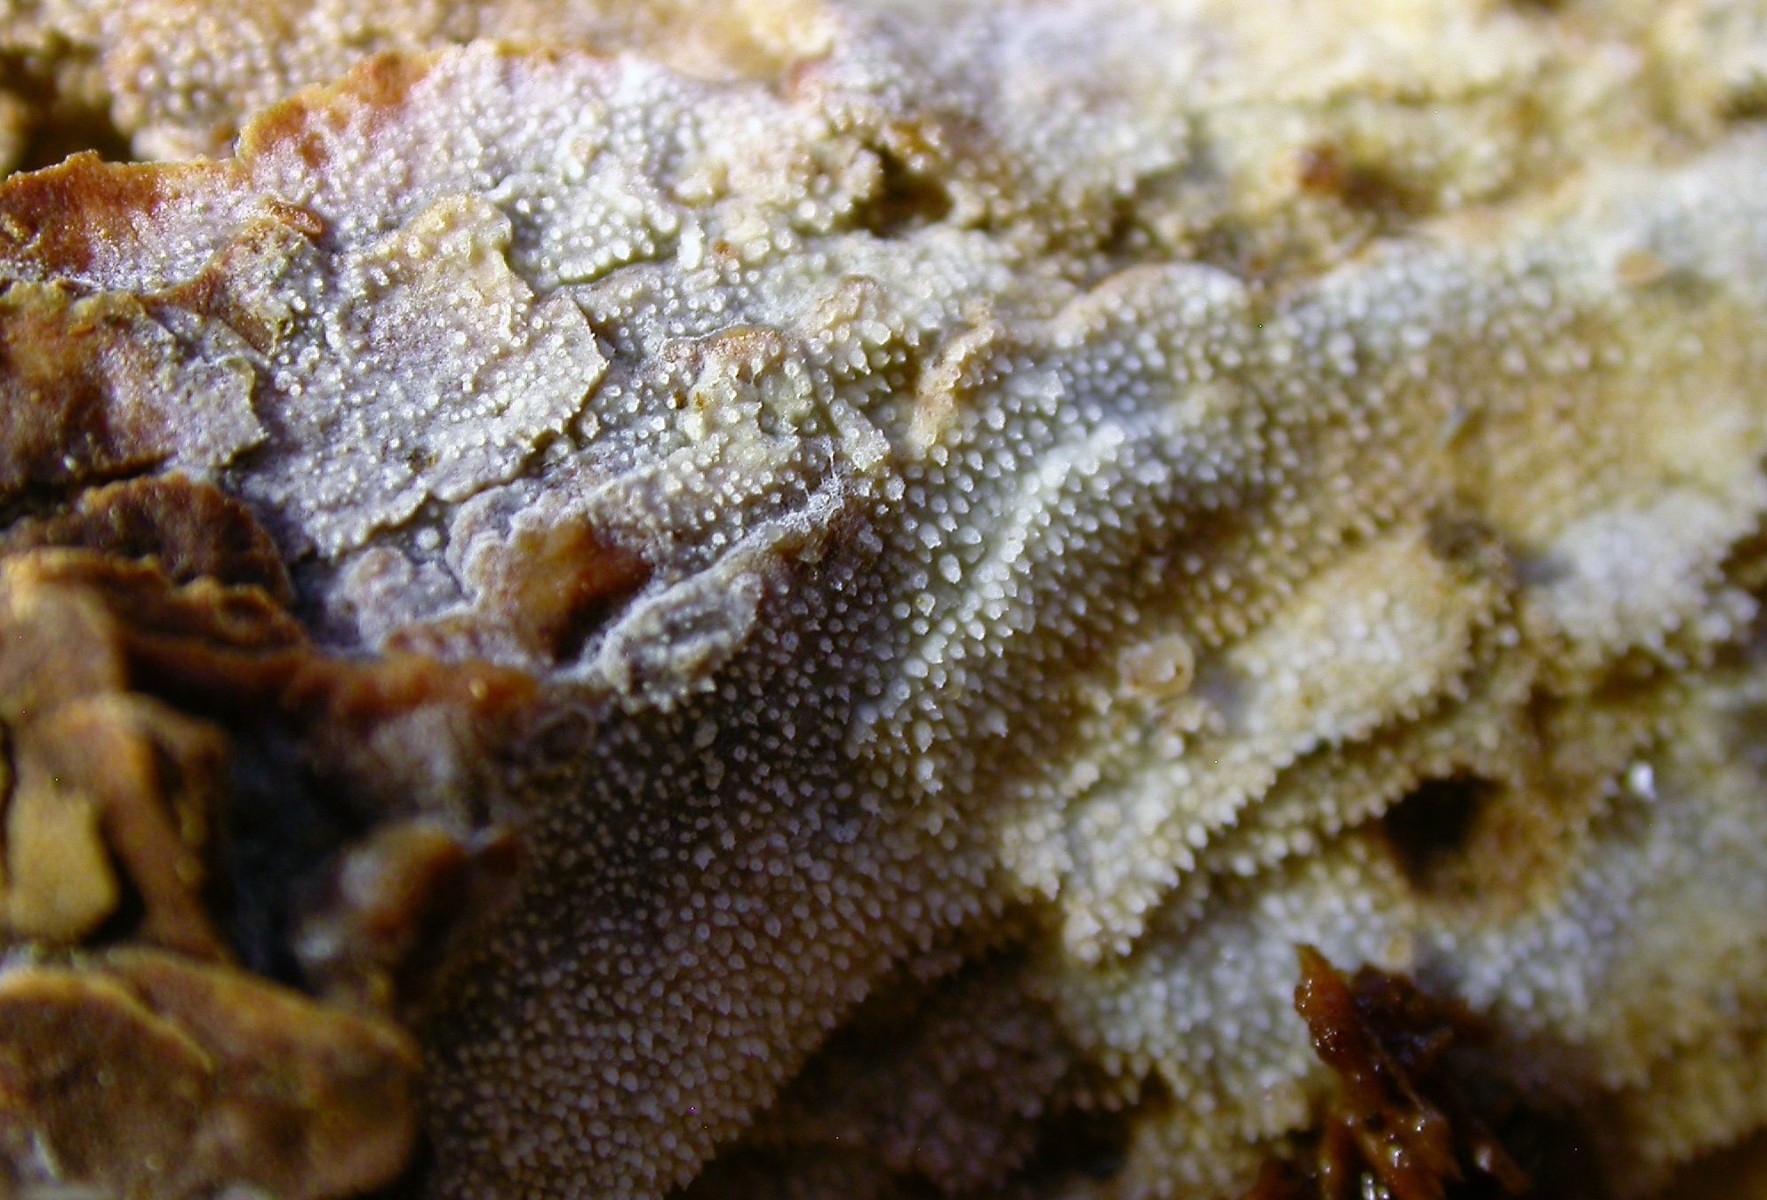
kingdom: Fungi
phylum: Basidiomycota
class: Agaricomycetes
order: Hymenochaetales
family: Rickenellaceae
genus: Resinicium
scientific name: Resinicium bicolor
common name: almindelig vokstand
